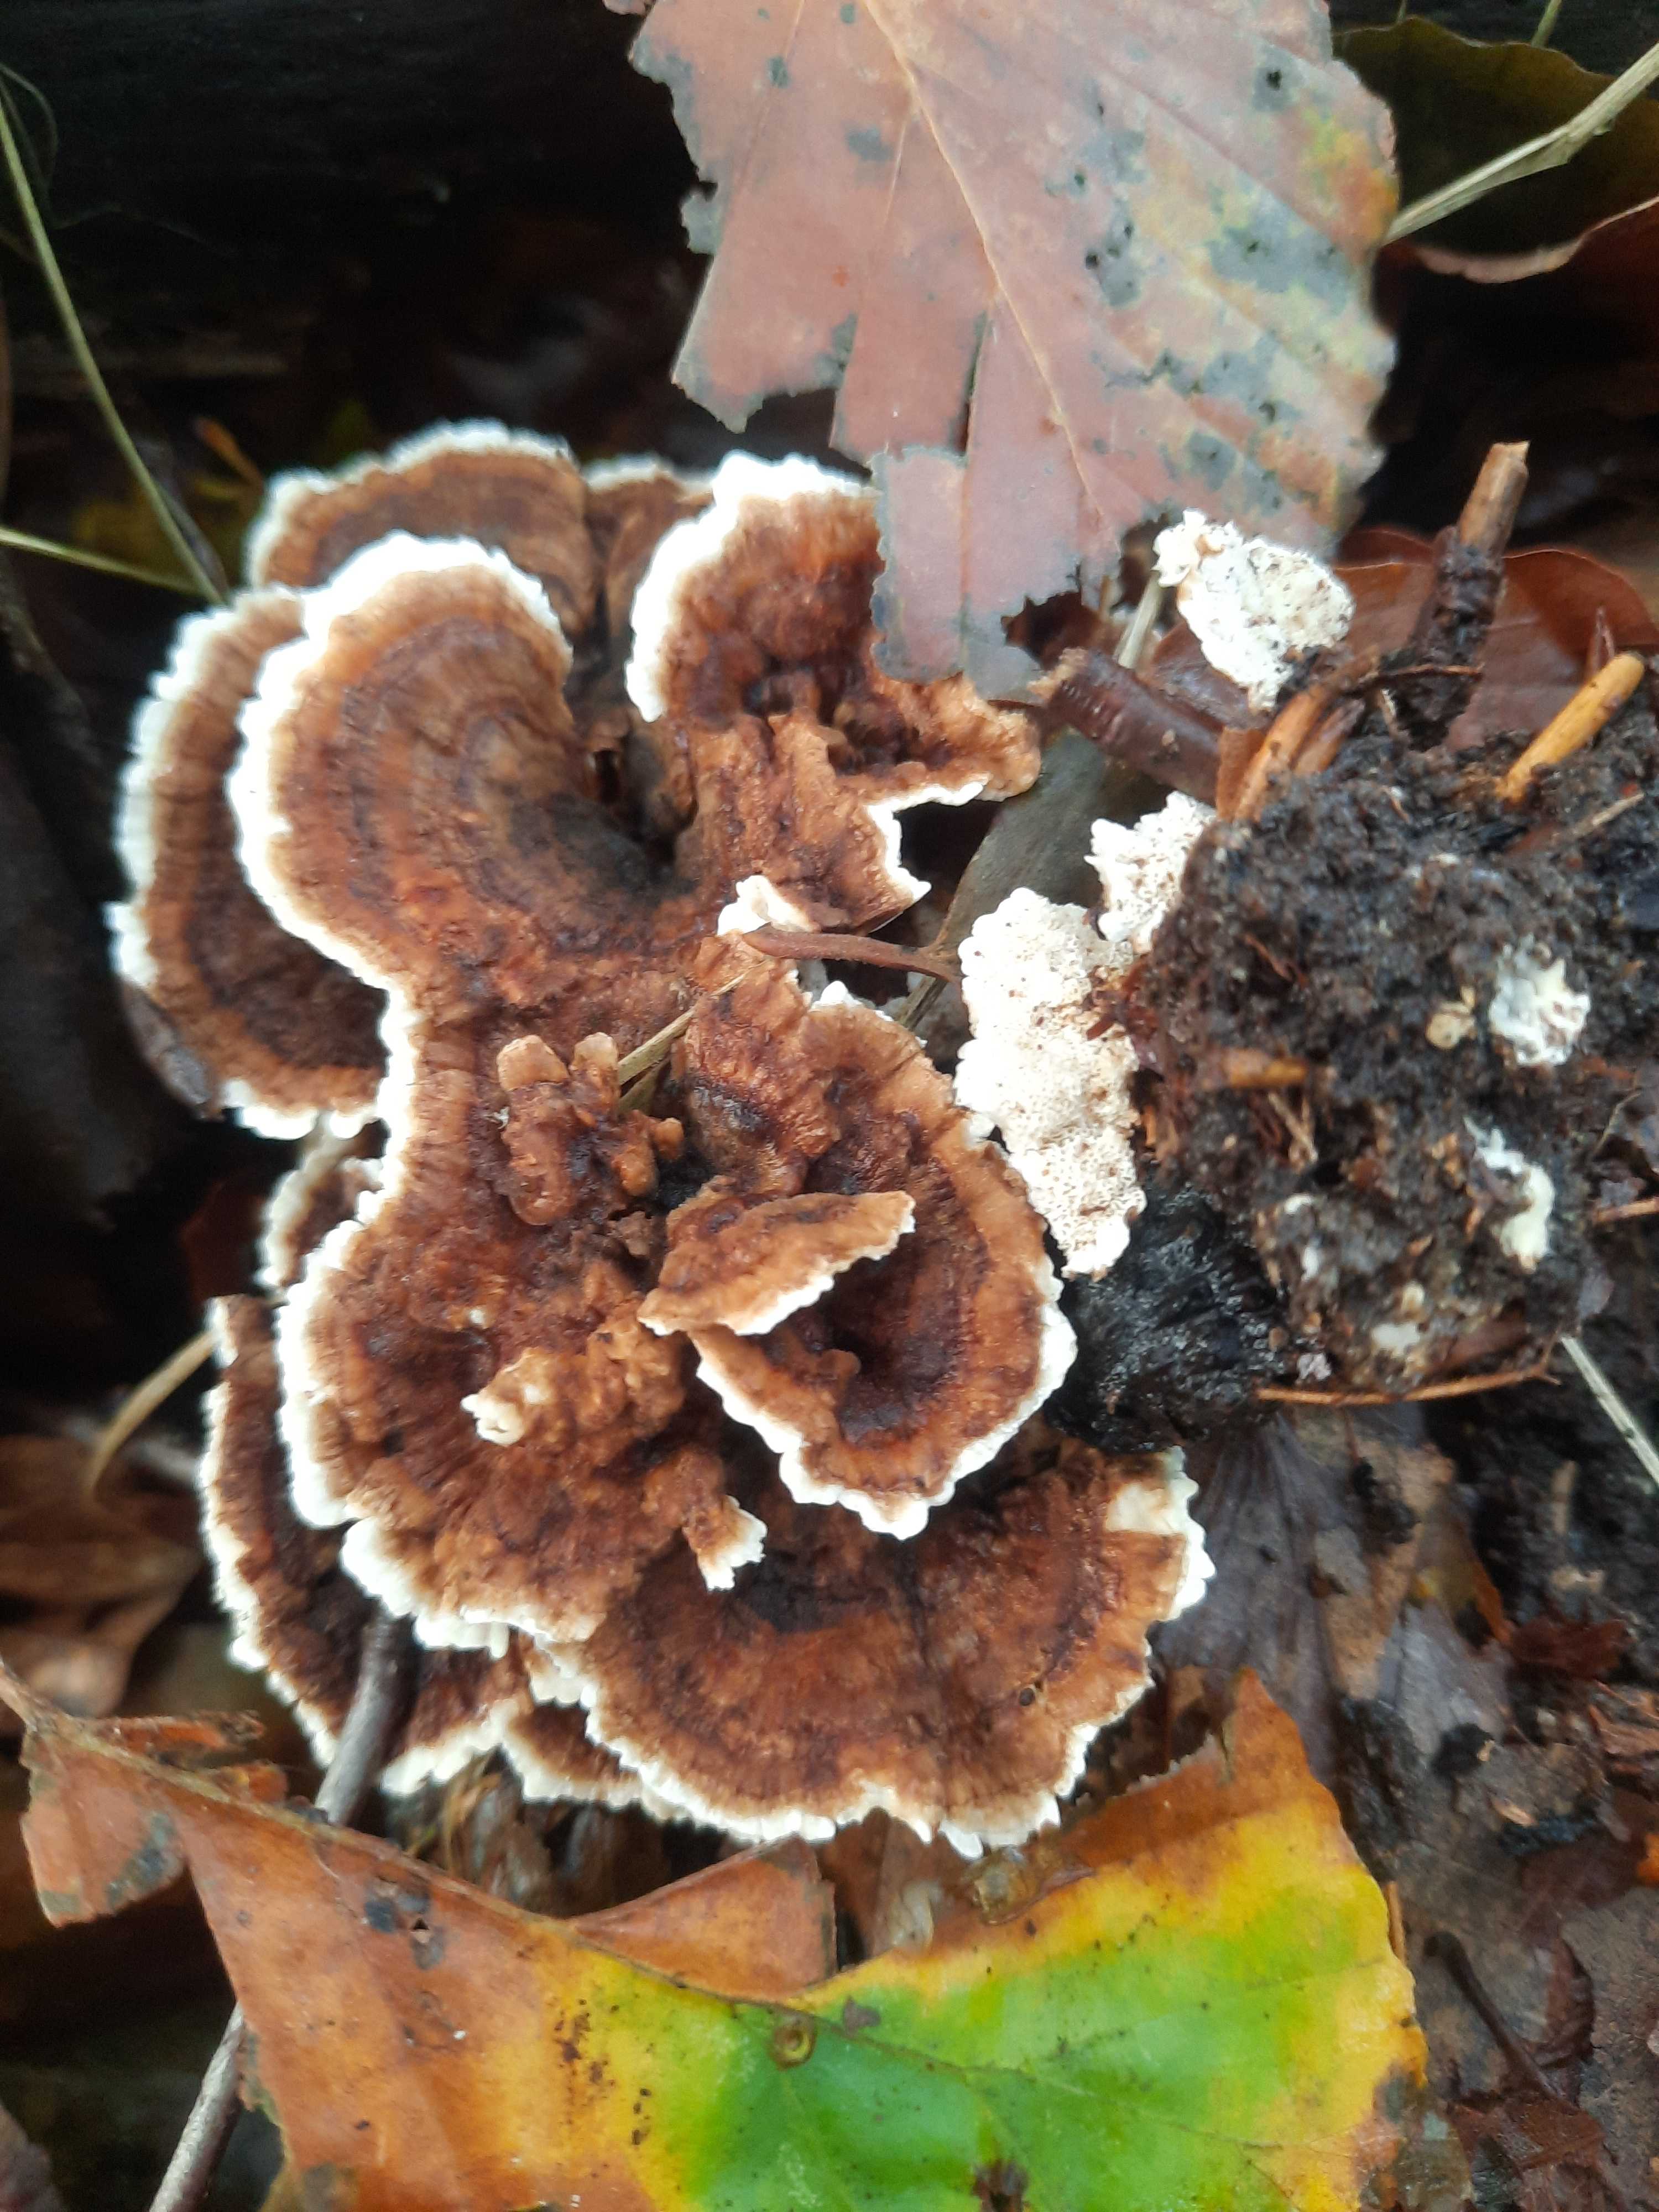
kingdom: Fungi
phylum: Basidiomycota
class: Agaricomycetes
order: Polyporales
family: Polyporaceae
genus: Trametes
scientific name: Trametes versicolor
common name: broget læderporesvamp
